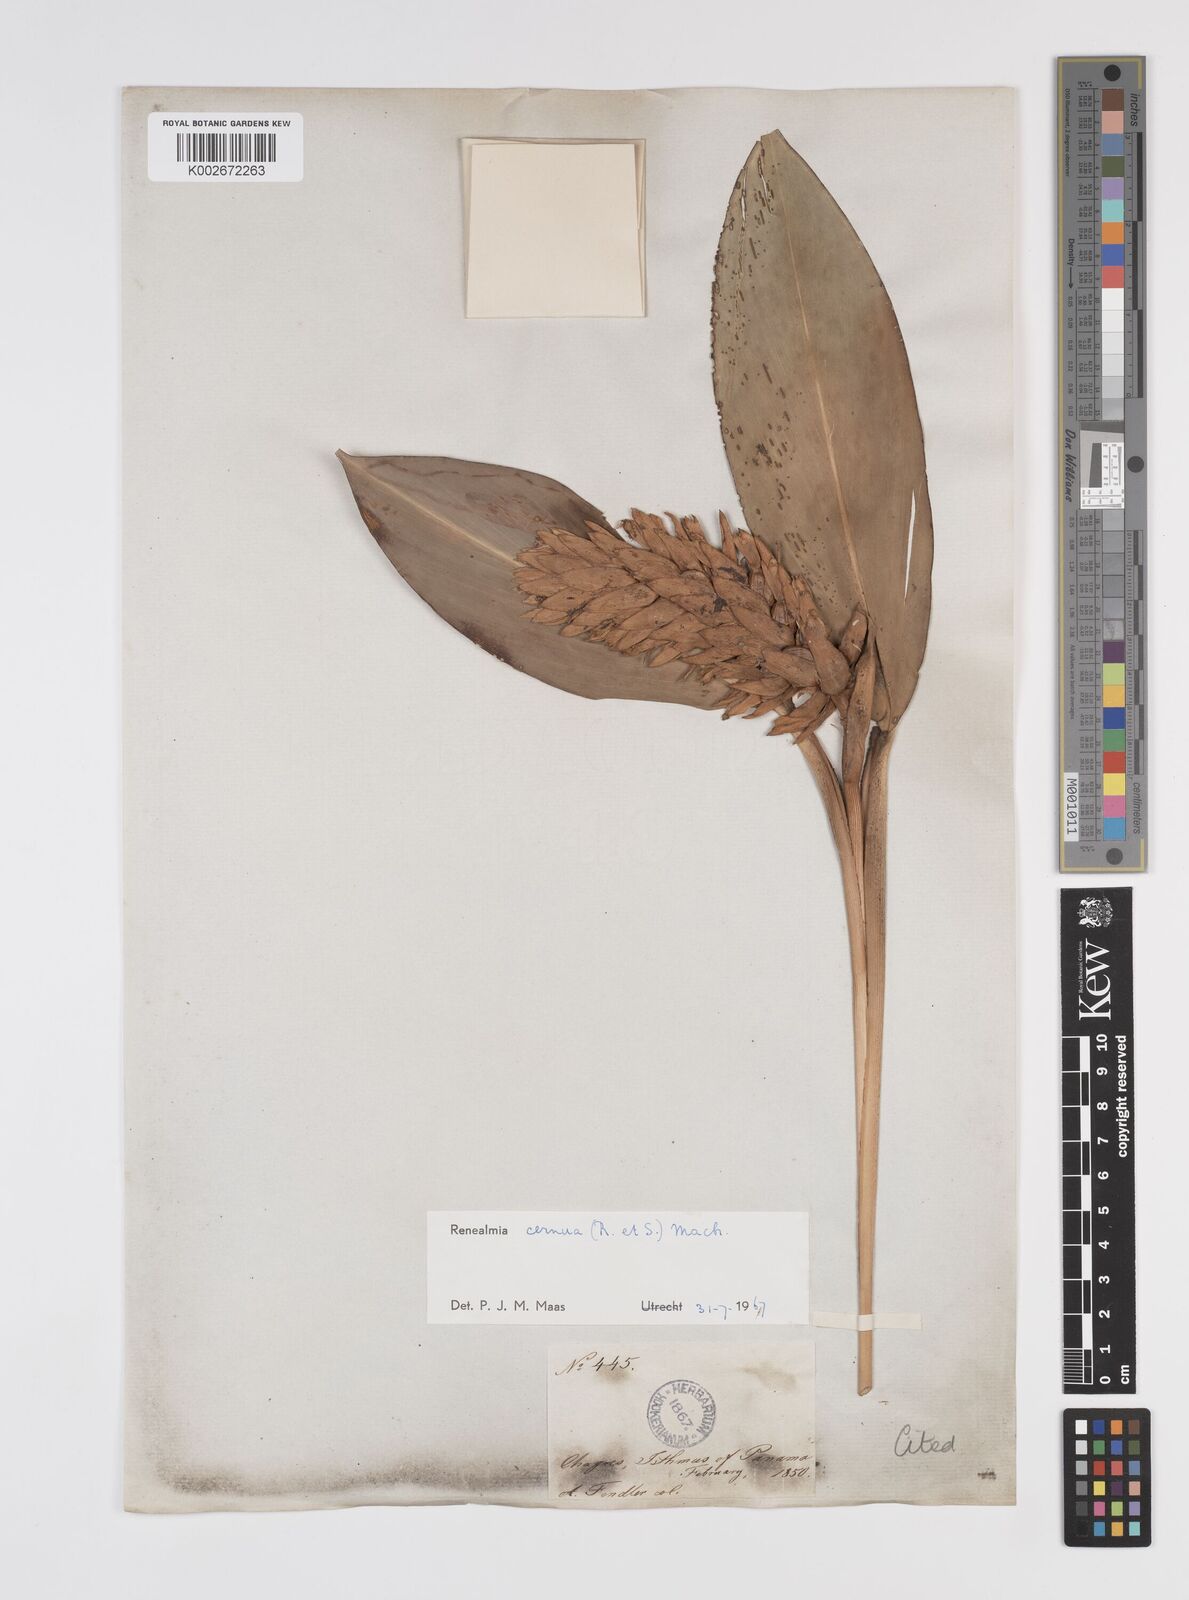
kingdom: Plantae
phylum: Tracheophyta
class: Liliopsida
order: Zingiberales
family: Zingiberaceae
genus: Renealmia
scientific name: Renealmia cernua
